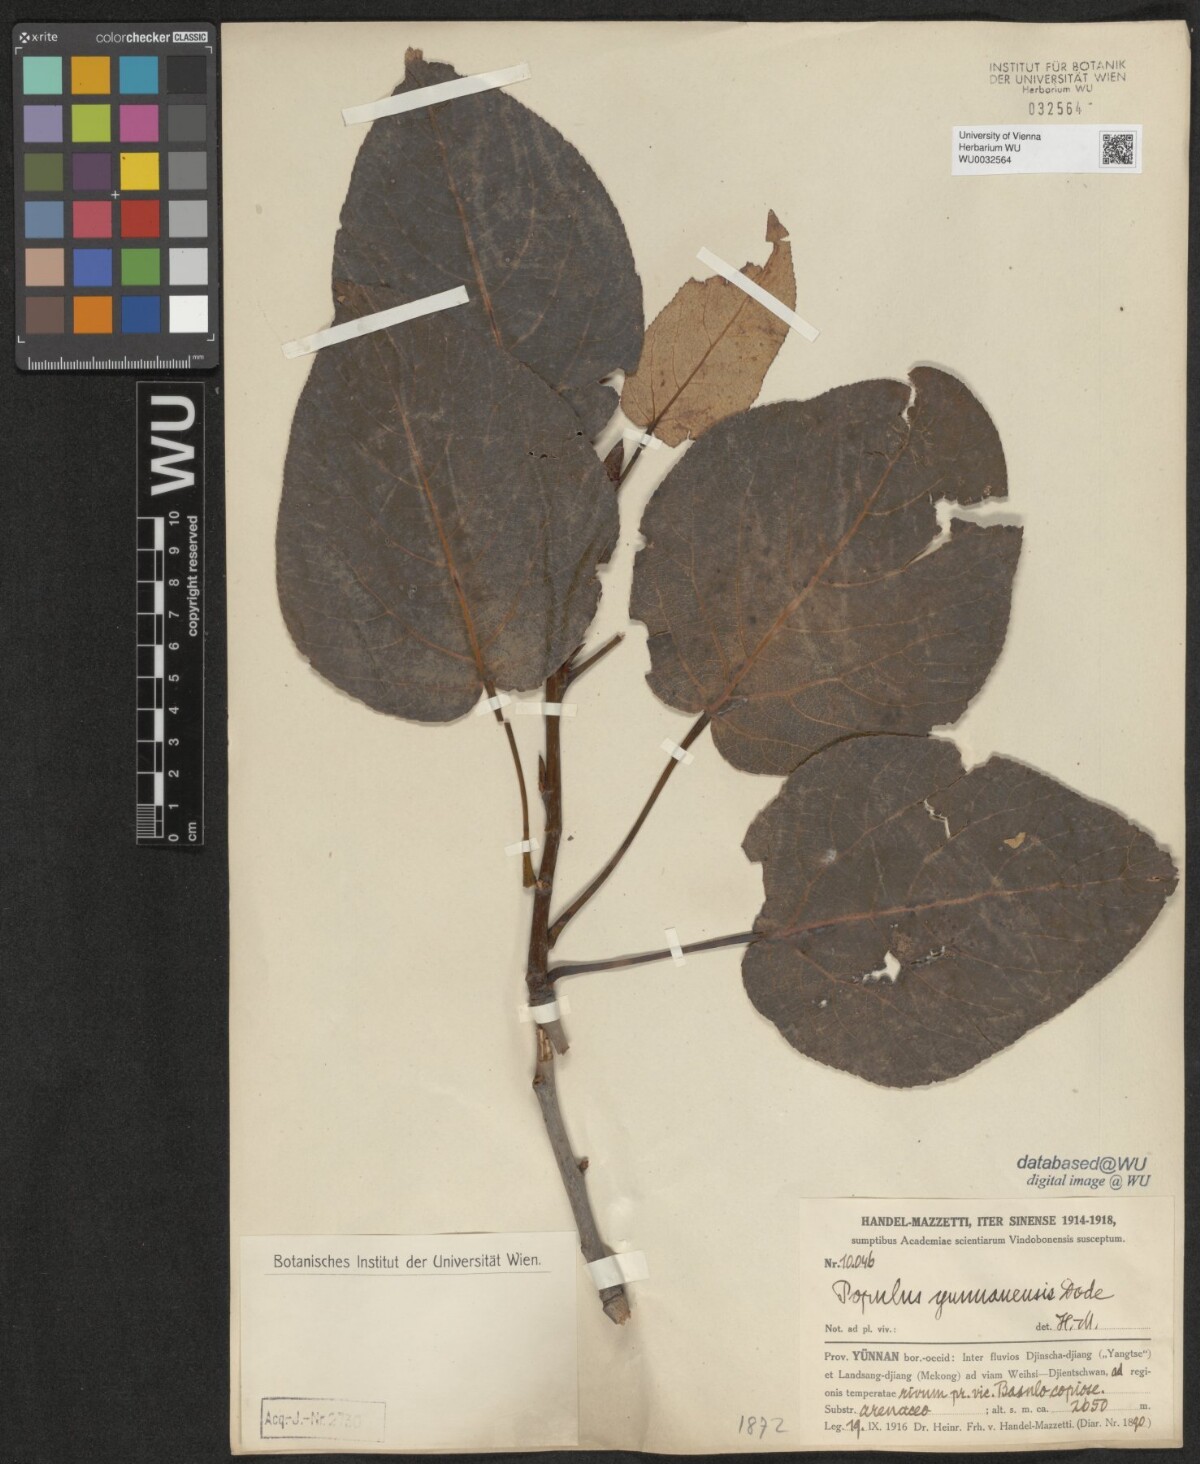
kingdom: Plantae
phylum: Tracheophyta
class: Magnoliopsida
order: Malpighiales
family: Salicaceae
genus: Populus
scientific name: Populus yunnanensis
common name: Yunnan poplar
